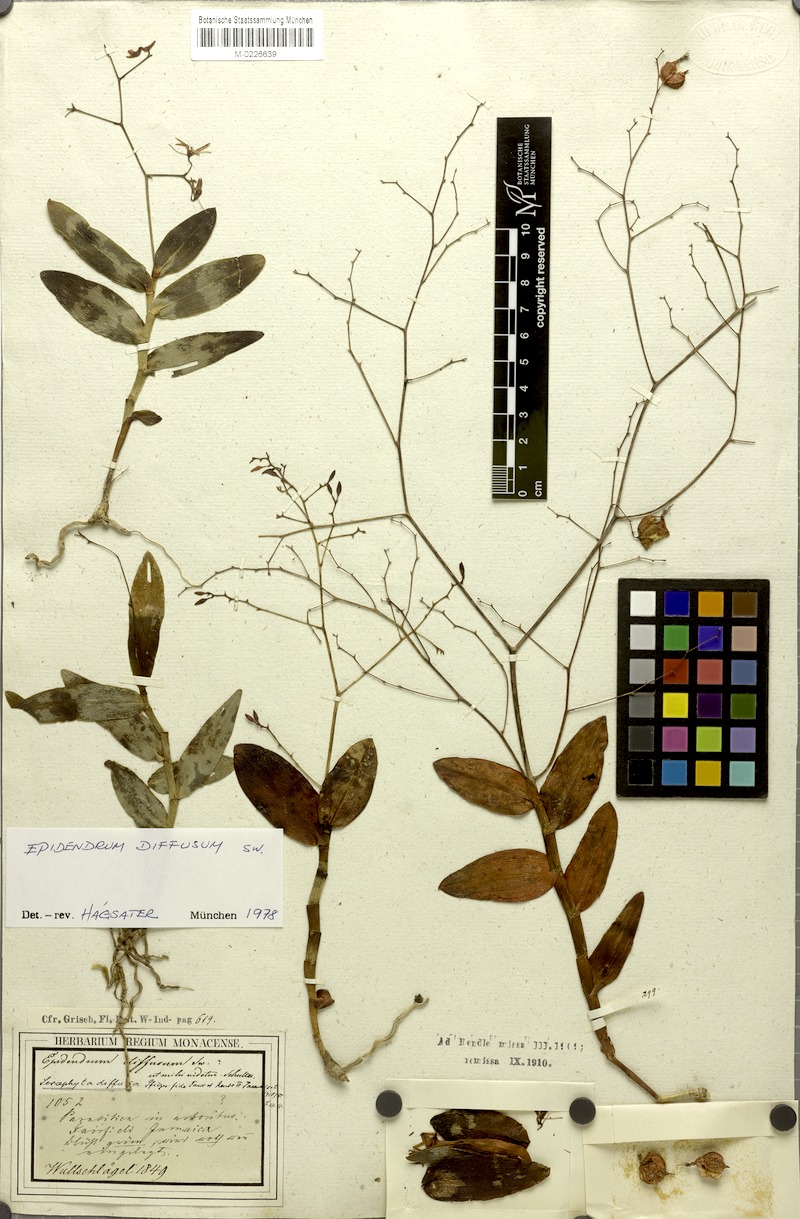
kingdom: Plantae
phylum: Tracheophyta
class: Liliopsida
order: Asparagales
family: Orchidaceae
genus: Epidendrum
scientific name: Epidendrum diffusum
